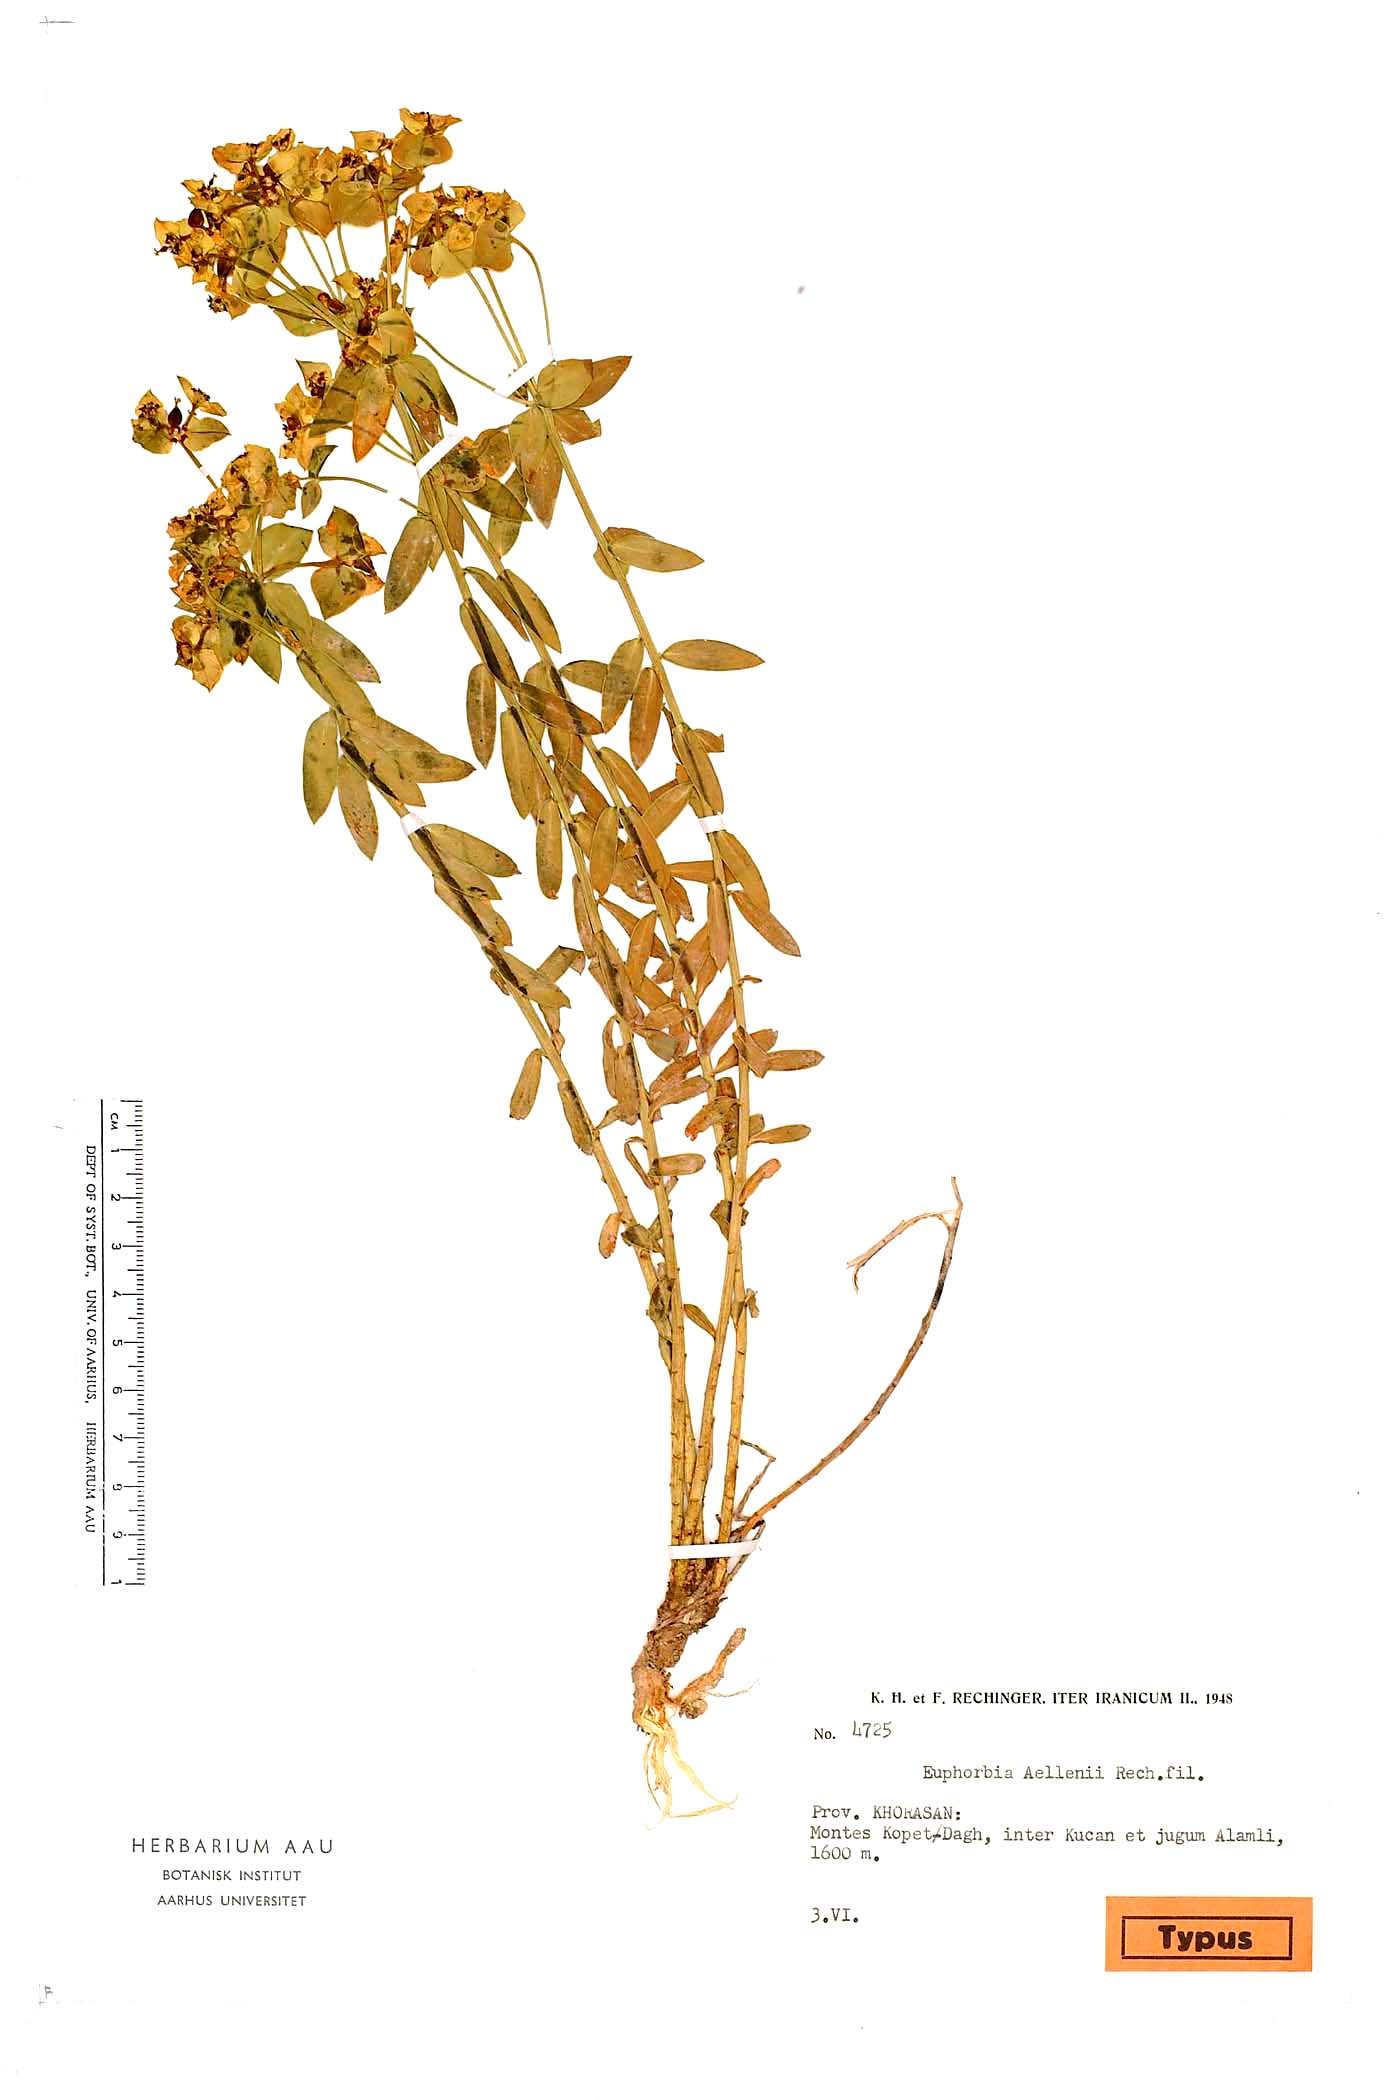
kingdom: Plantae
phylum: Tracheophyta
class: Magnoliopsida
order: Malpighiales
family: Euphorbiaceae
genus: Euphorbia
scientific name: Euphorbia kopetdaghi
